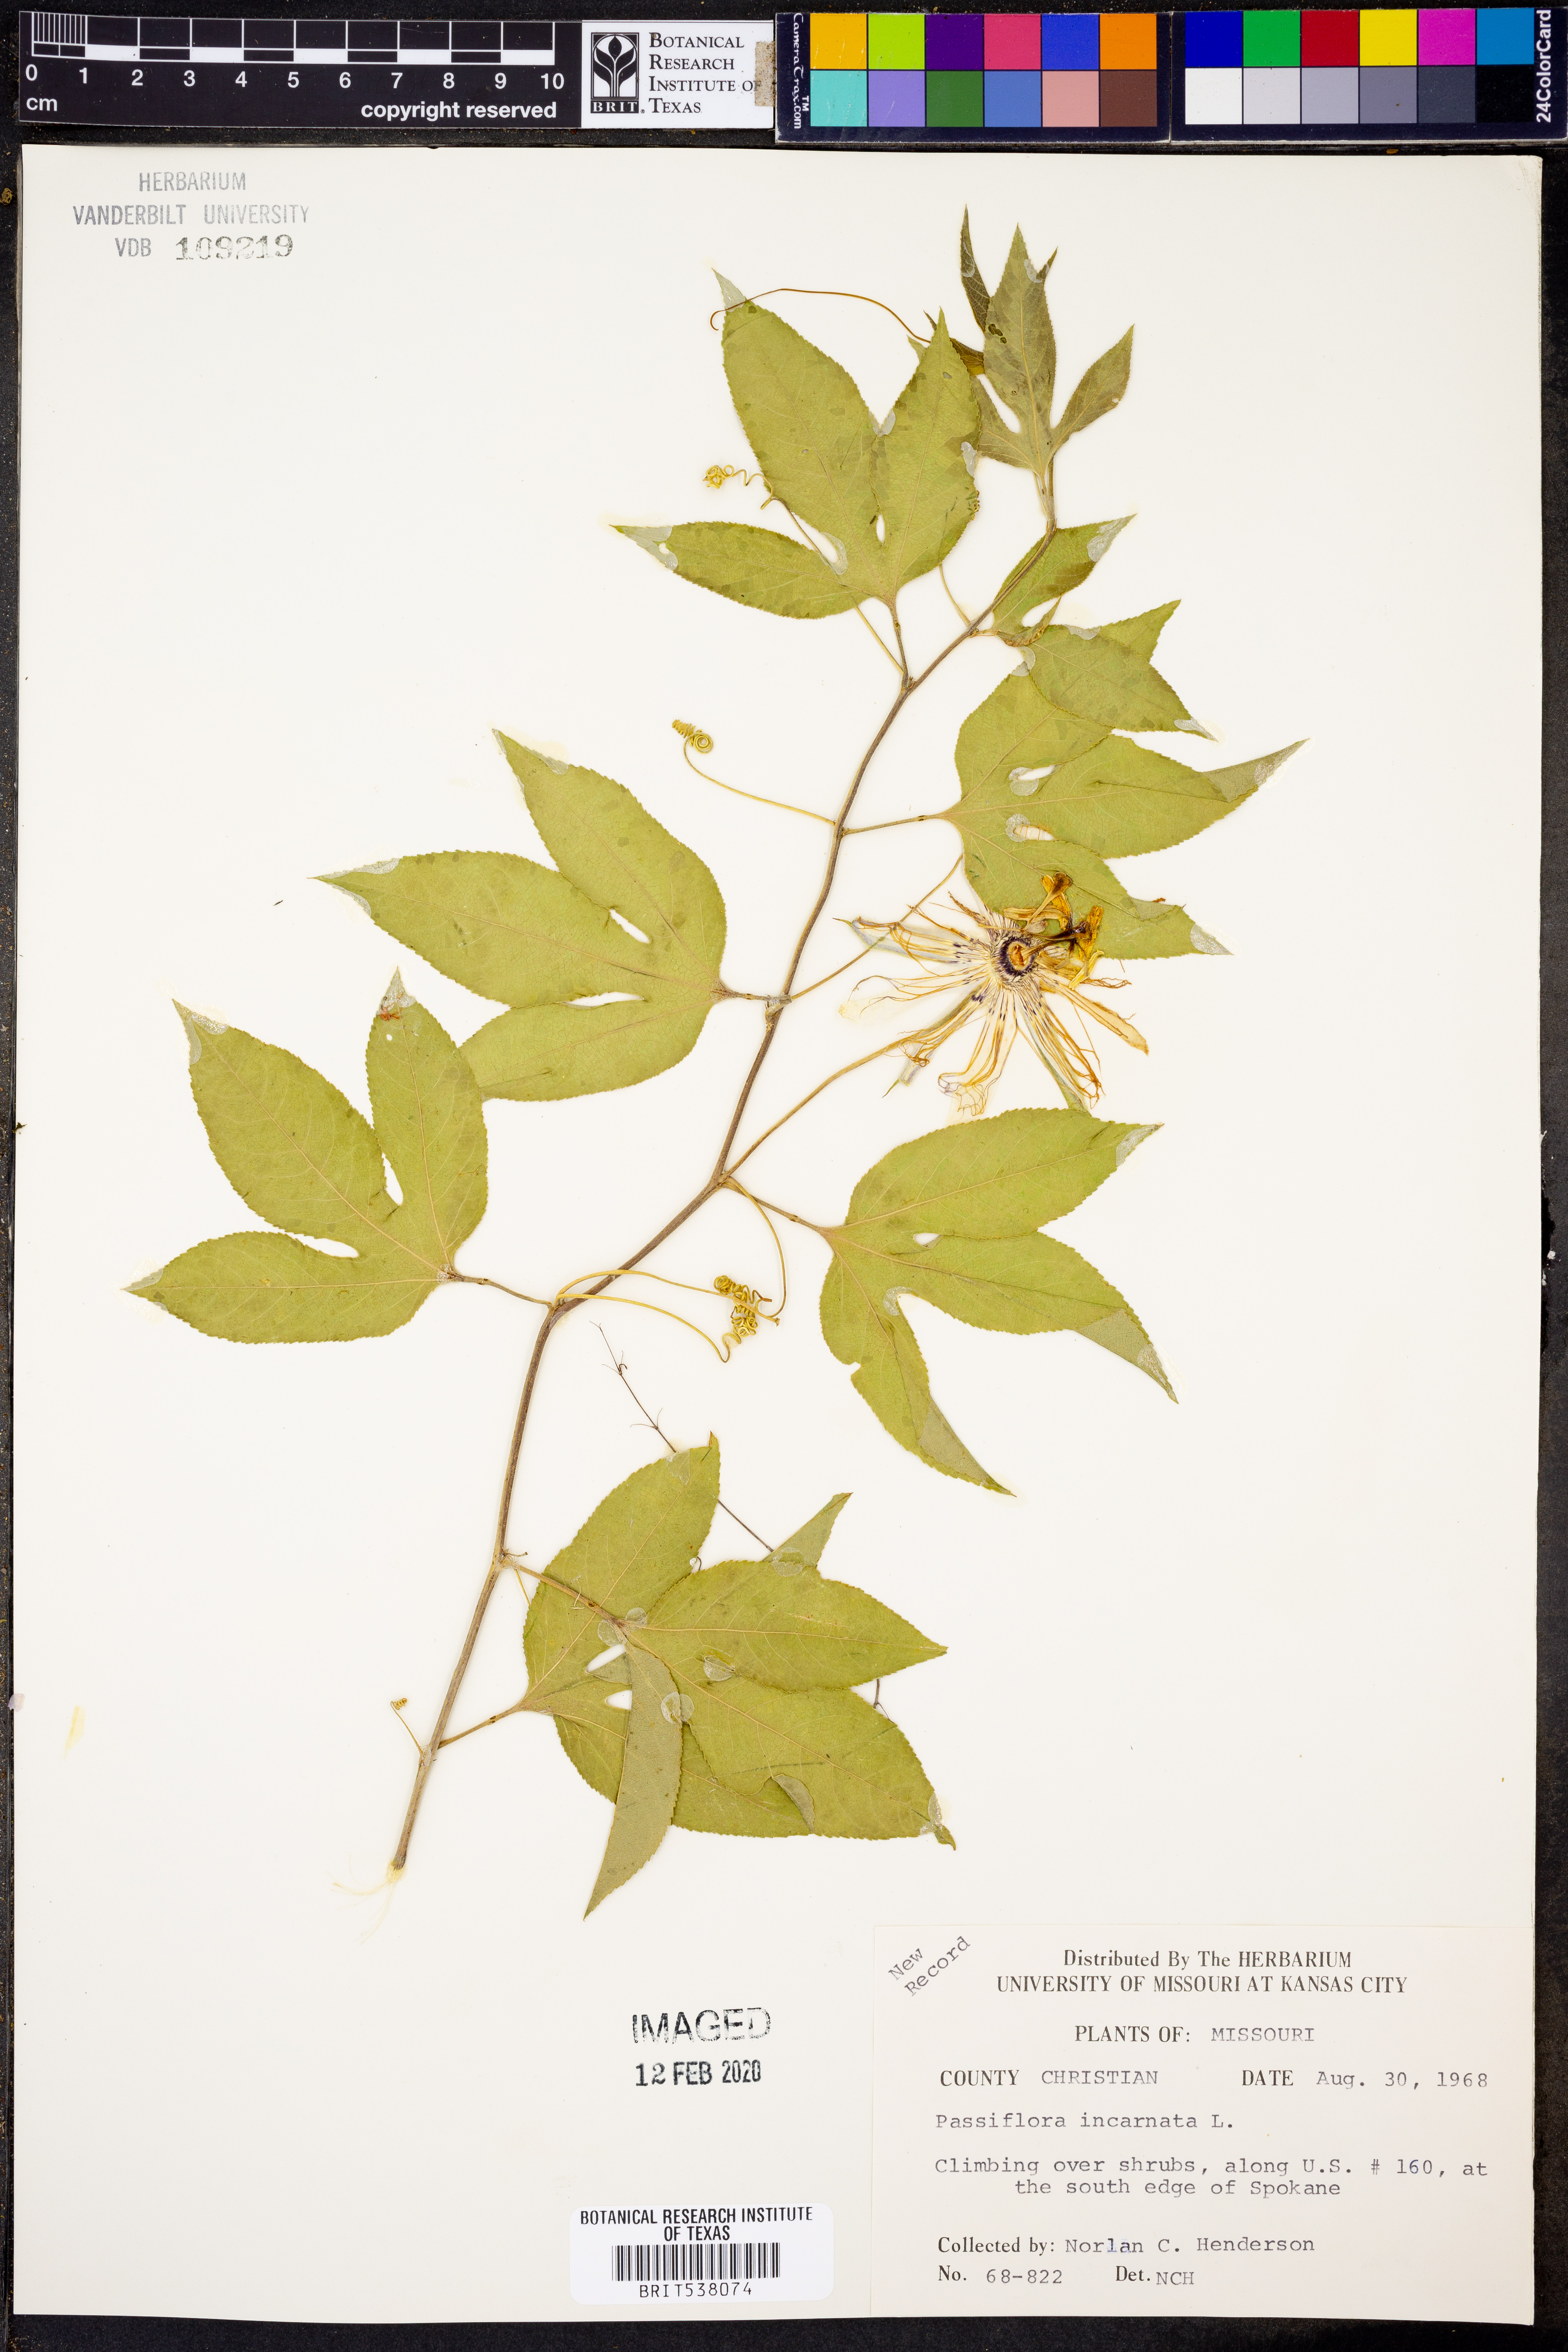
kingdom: Plantae
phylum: Tracheophyta
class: Magnoliopsida
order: Malpighiales
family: Passifloraceae
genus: Passiflora
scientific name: Passiflora incarnata
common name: Apricot-vine
